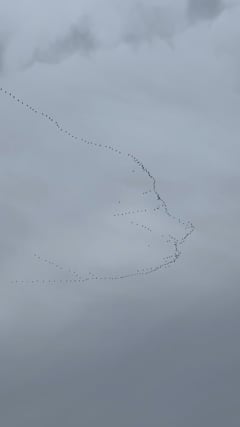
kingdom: Animalia
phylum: Chordata
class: Aves
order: Gruiformes
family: Gruidae
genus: Grus
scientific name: Grus grus
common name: Common crane
